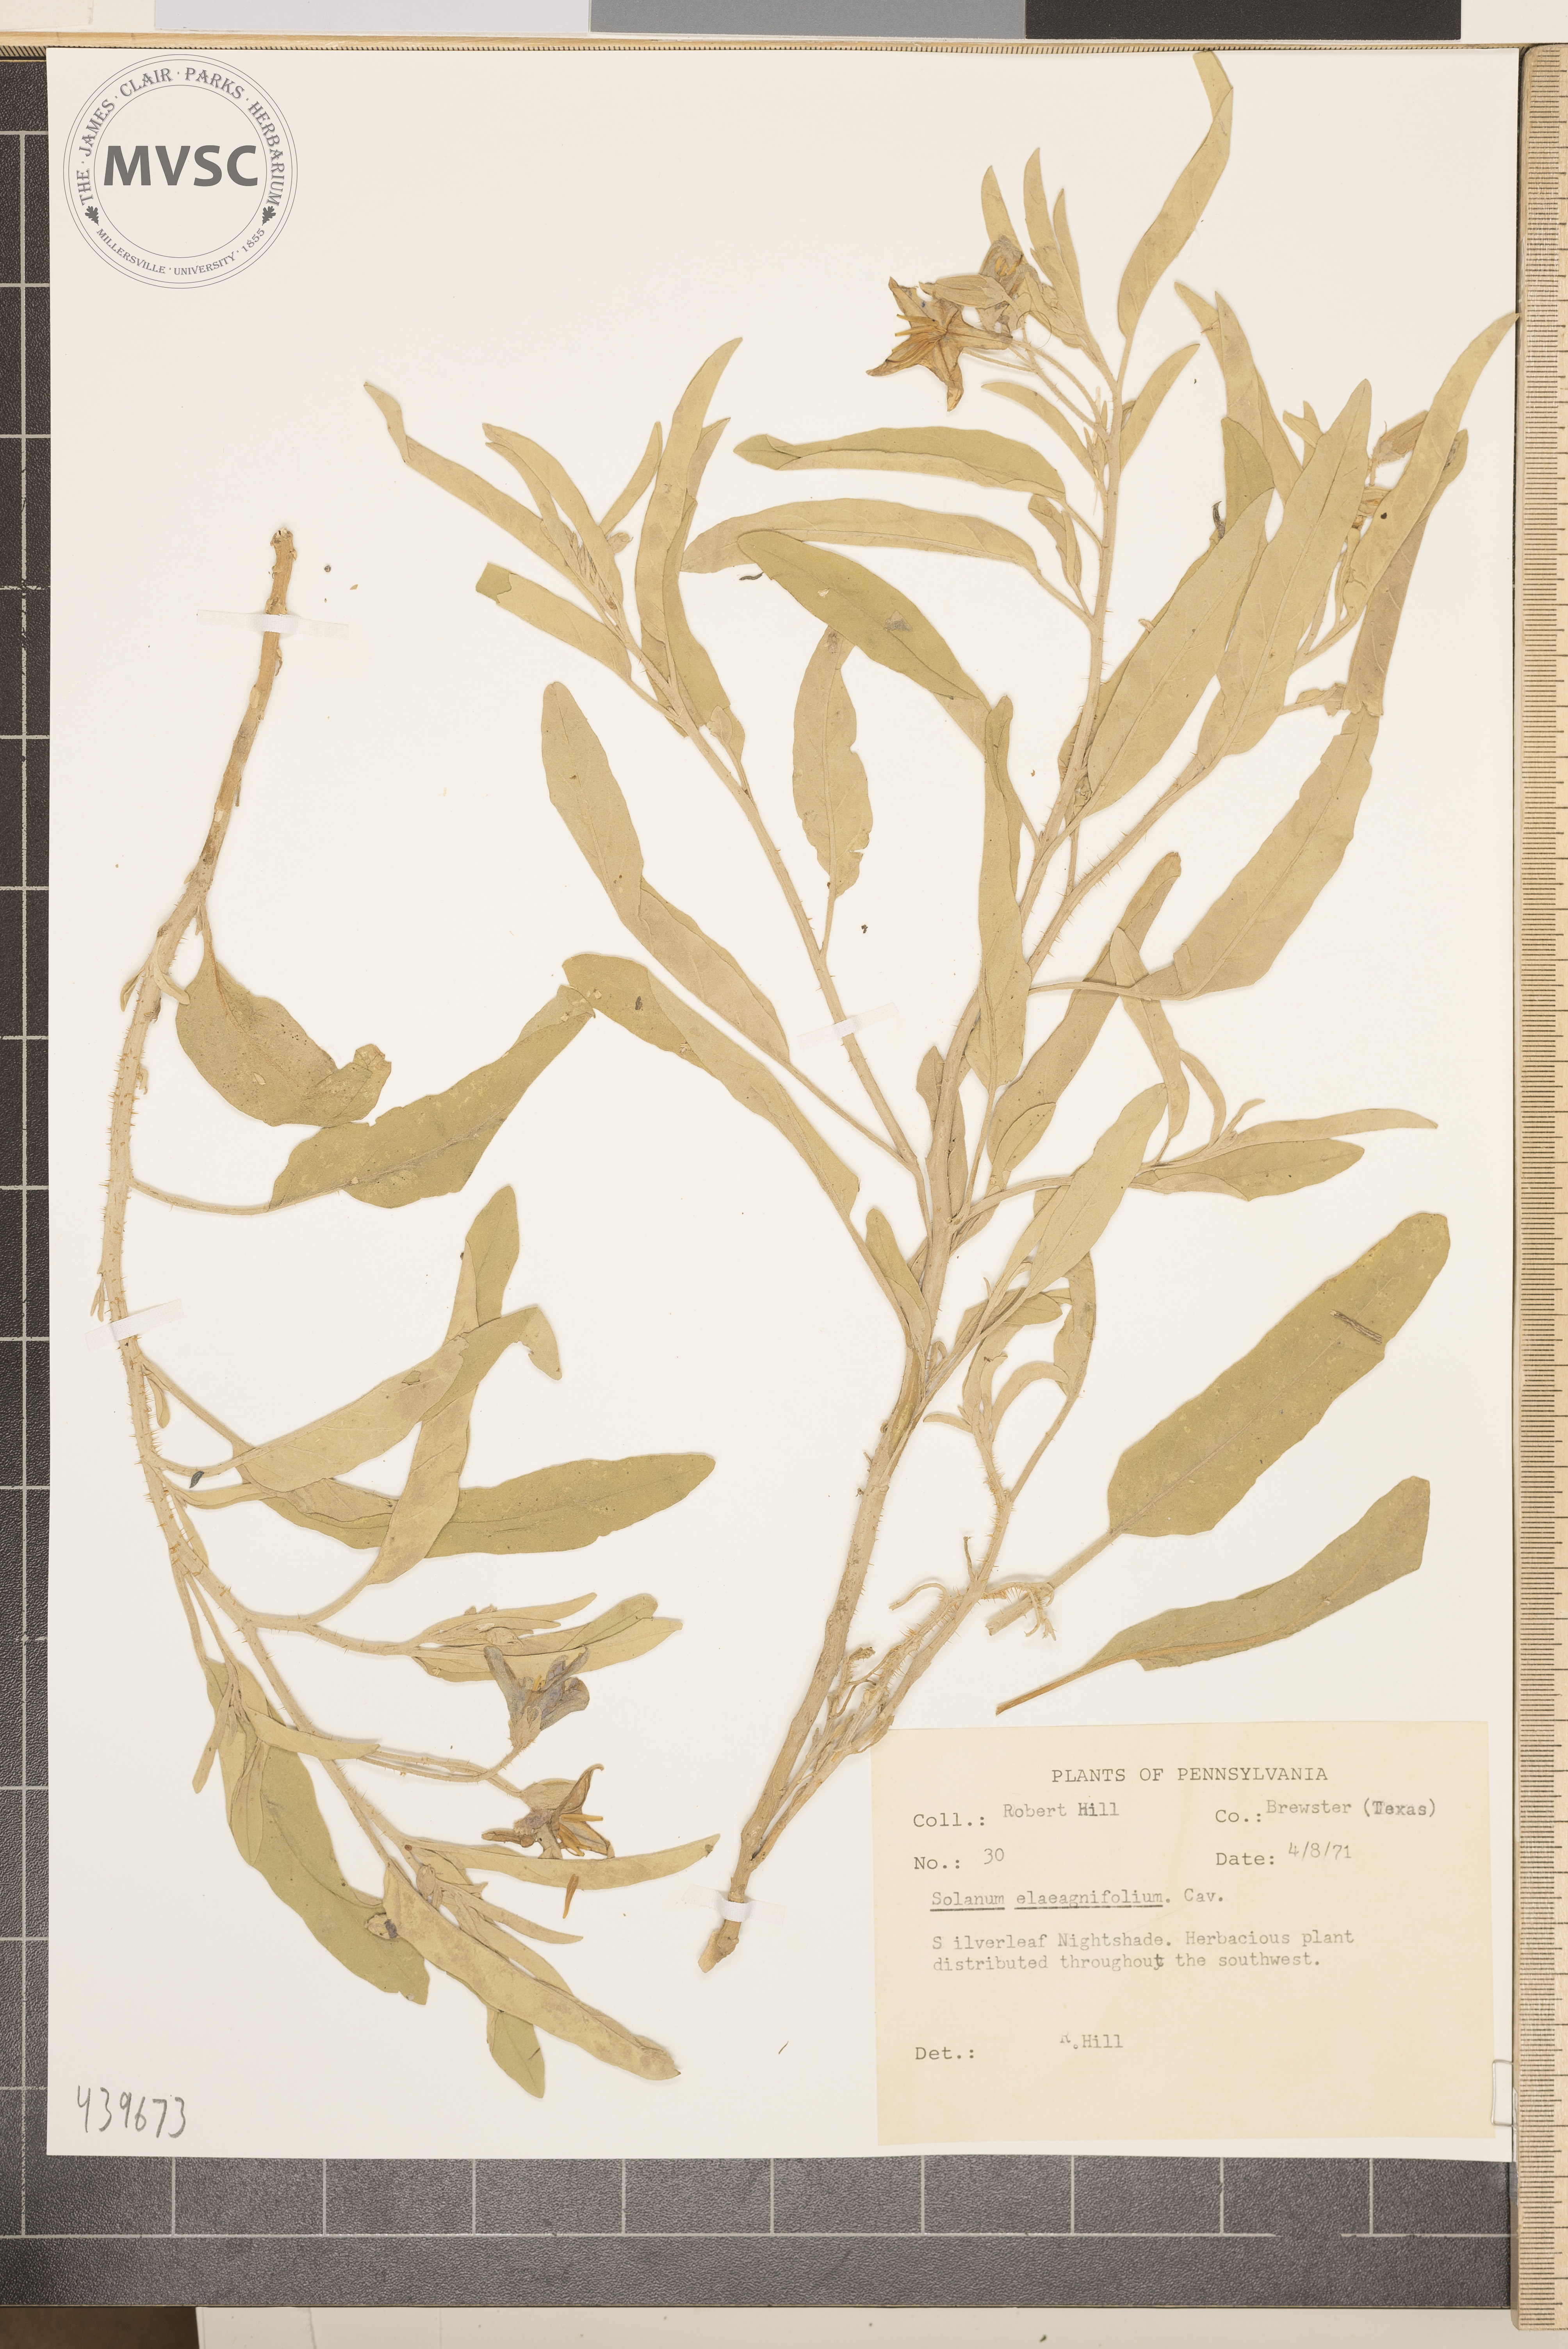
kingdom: Plantae
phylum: Tracheophyta
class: Magnoliopsida
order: Solanales
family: Solanaceae
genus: Solanum
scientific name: Solanum elaeagnifolium
